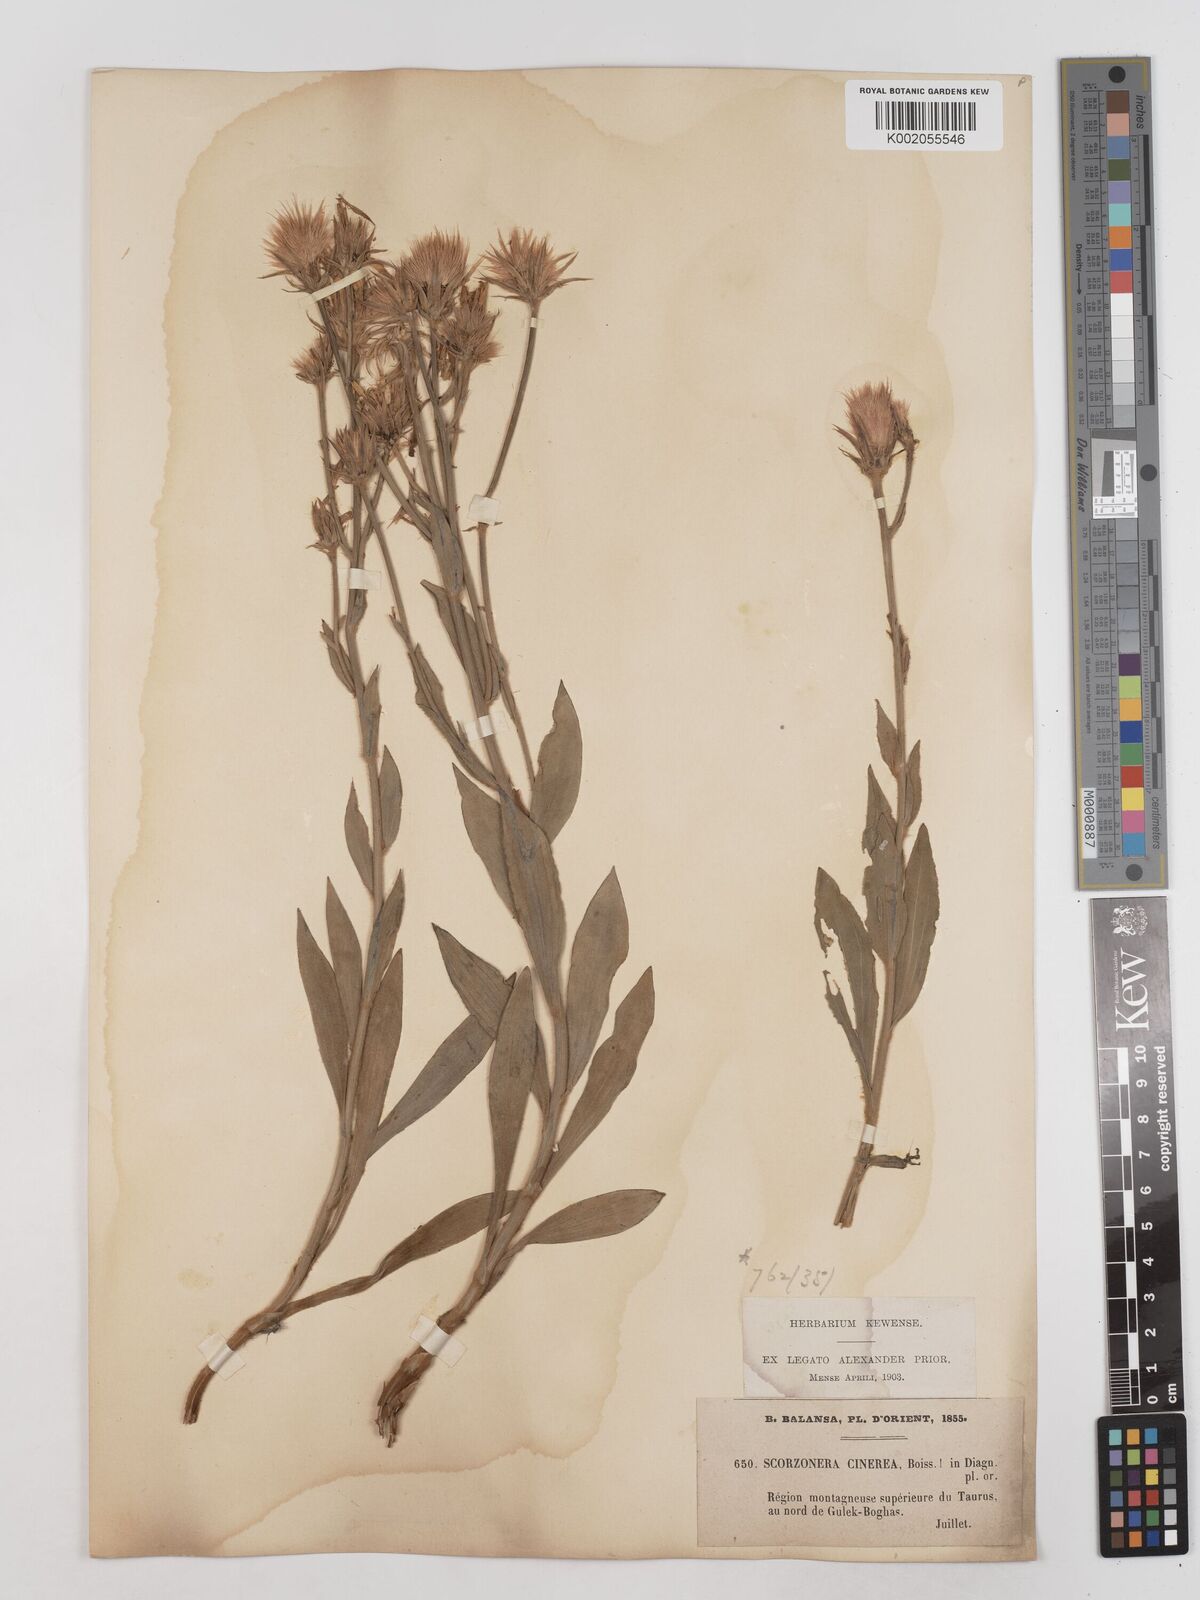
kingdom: Plantae
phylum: Tracheophyta
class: Magnoliopsida
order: Asterales
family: Asteraceae
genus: Cigdemia
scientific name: Cigdemia cinerea
